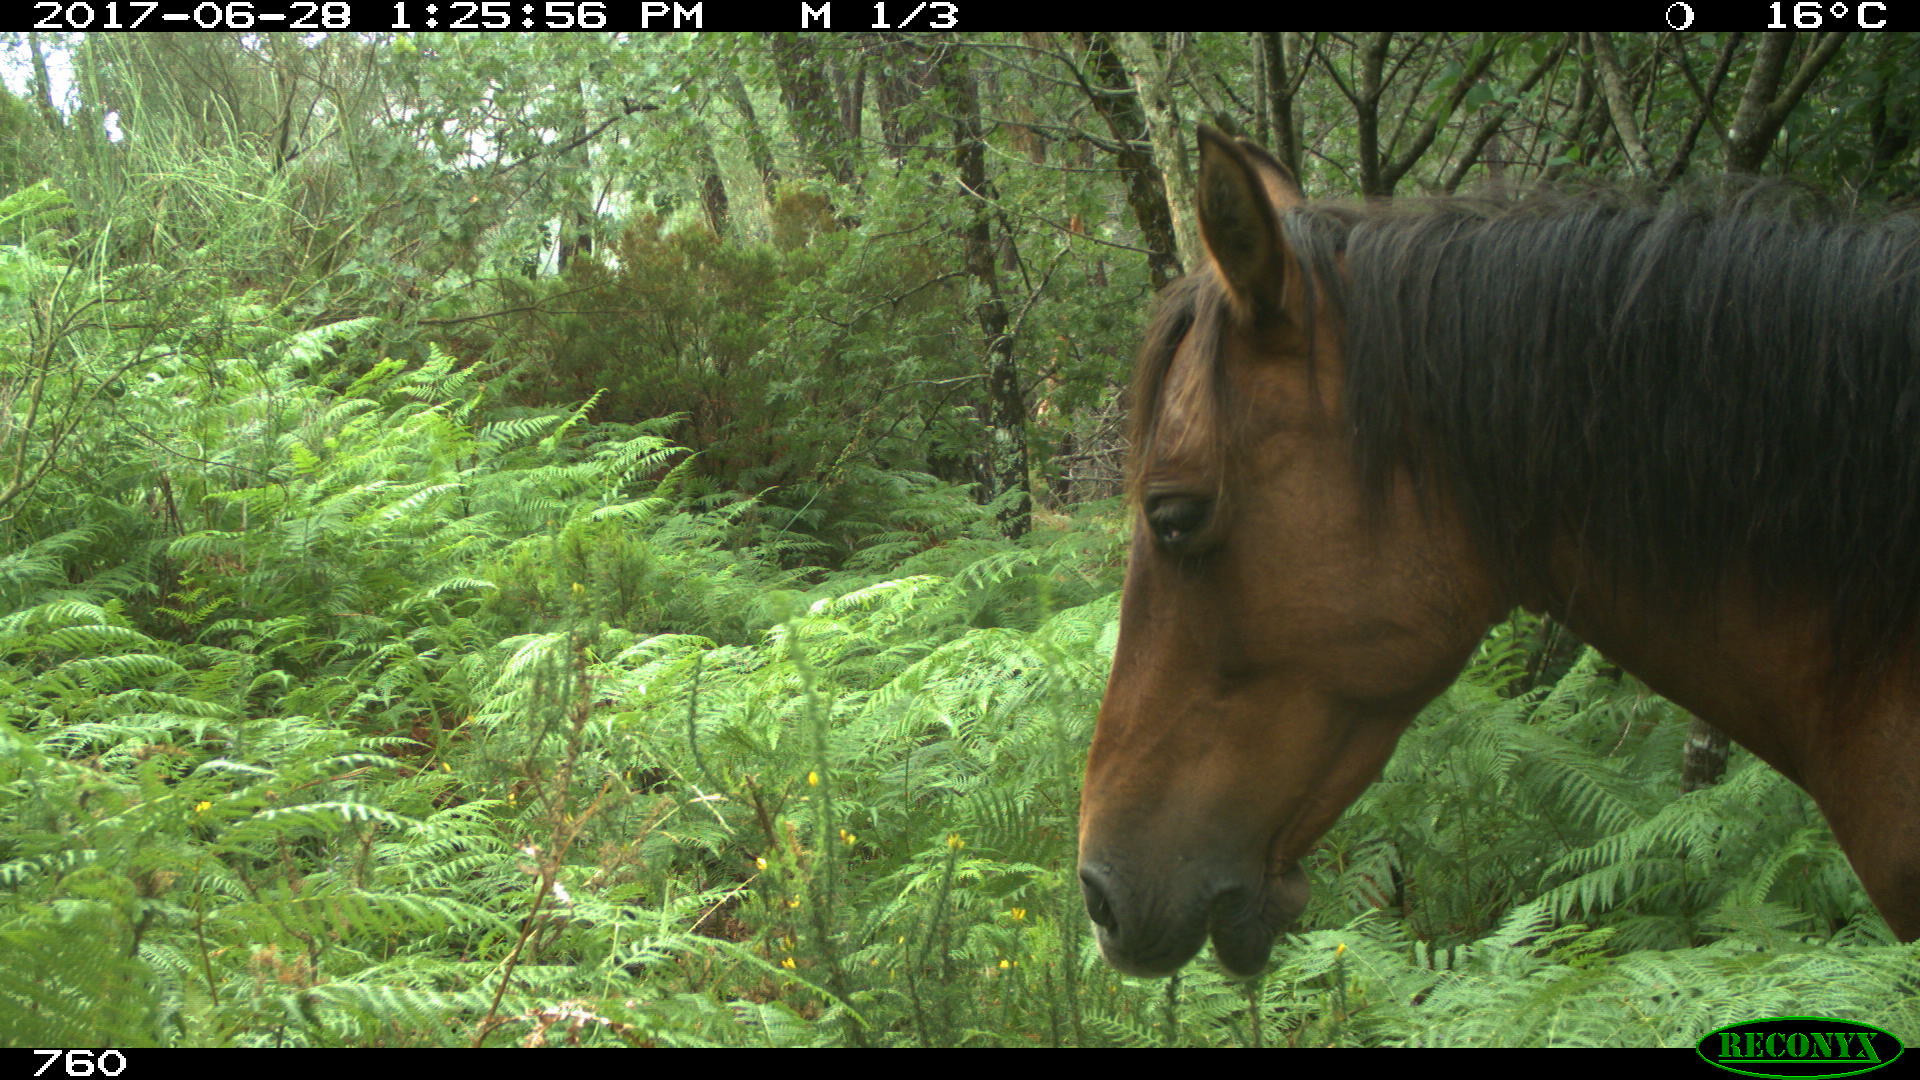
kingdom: Animalia
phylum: Chordata
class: Mammalia
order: Perissodactyla
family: Equidae
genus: Equus
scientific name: Equus caballus
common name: Horse
